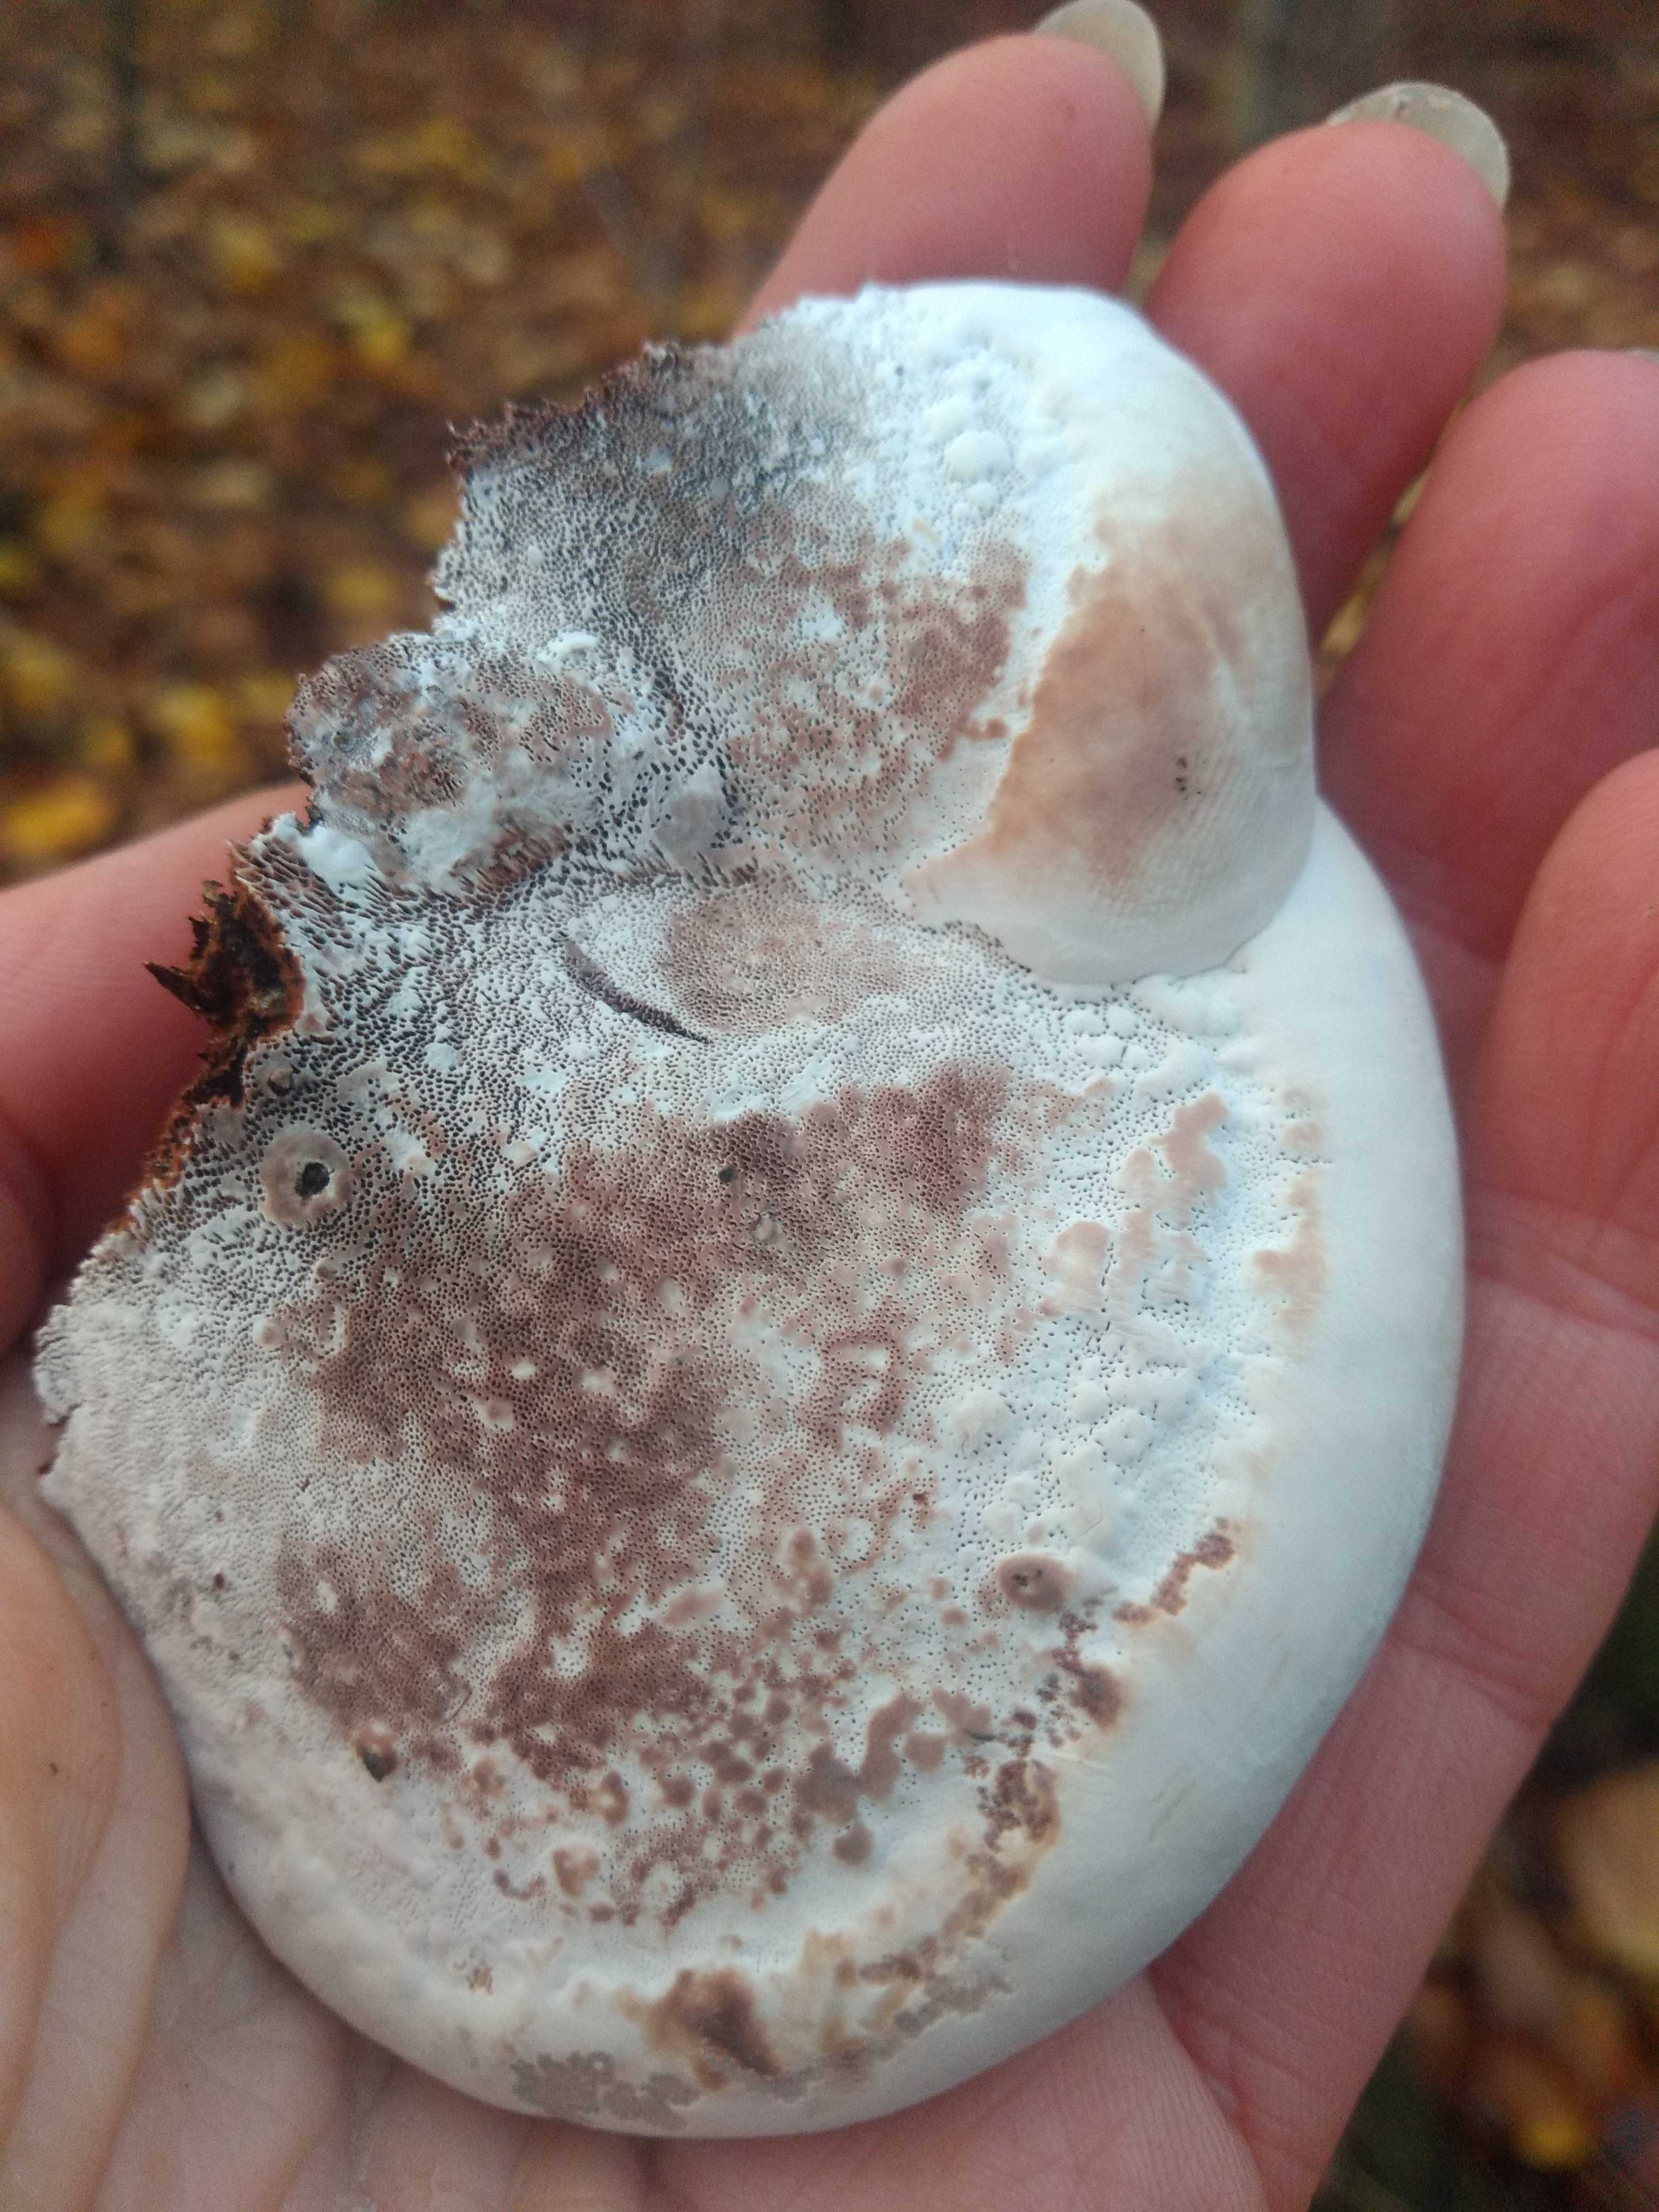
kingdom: Fungi
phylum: Basidiomycota
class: Agaricomycetes
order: Polyporales
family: Polyporaceae
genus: Ganoderma
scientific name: Ganoderma
